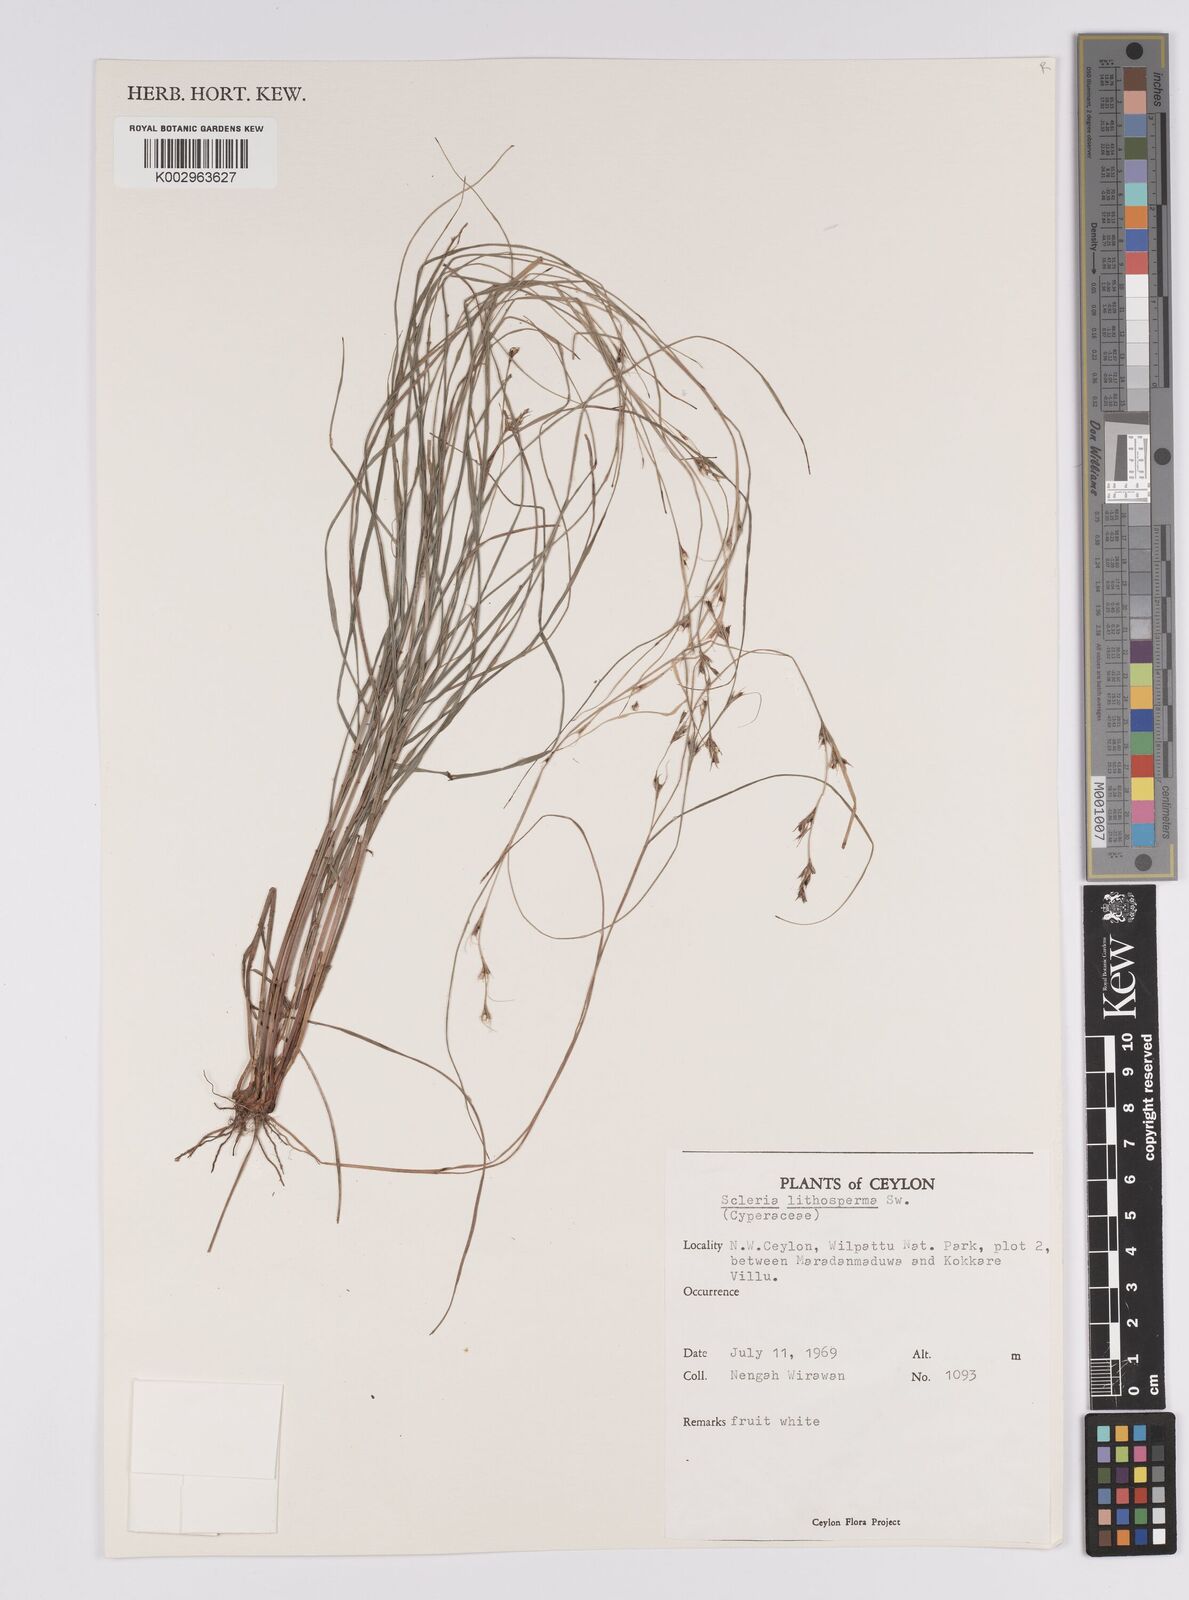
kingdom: Plantae
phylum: Tracheophyta
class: Liliopsida
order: Poales
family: Cyperaceae
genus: Scleria
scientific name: Scleria lithosperma
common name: Florida keys nut-rush
